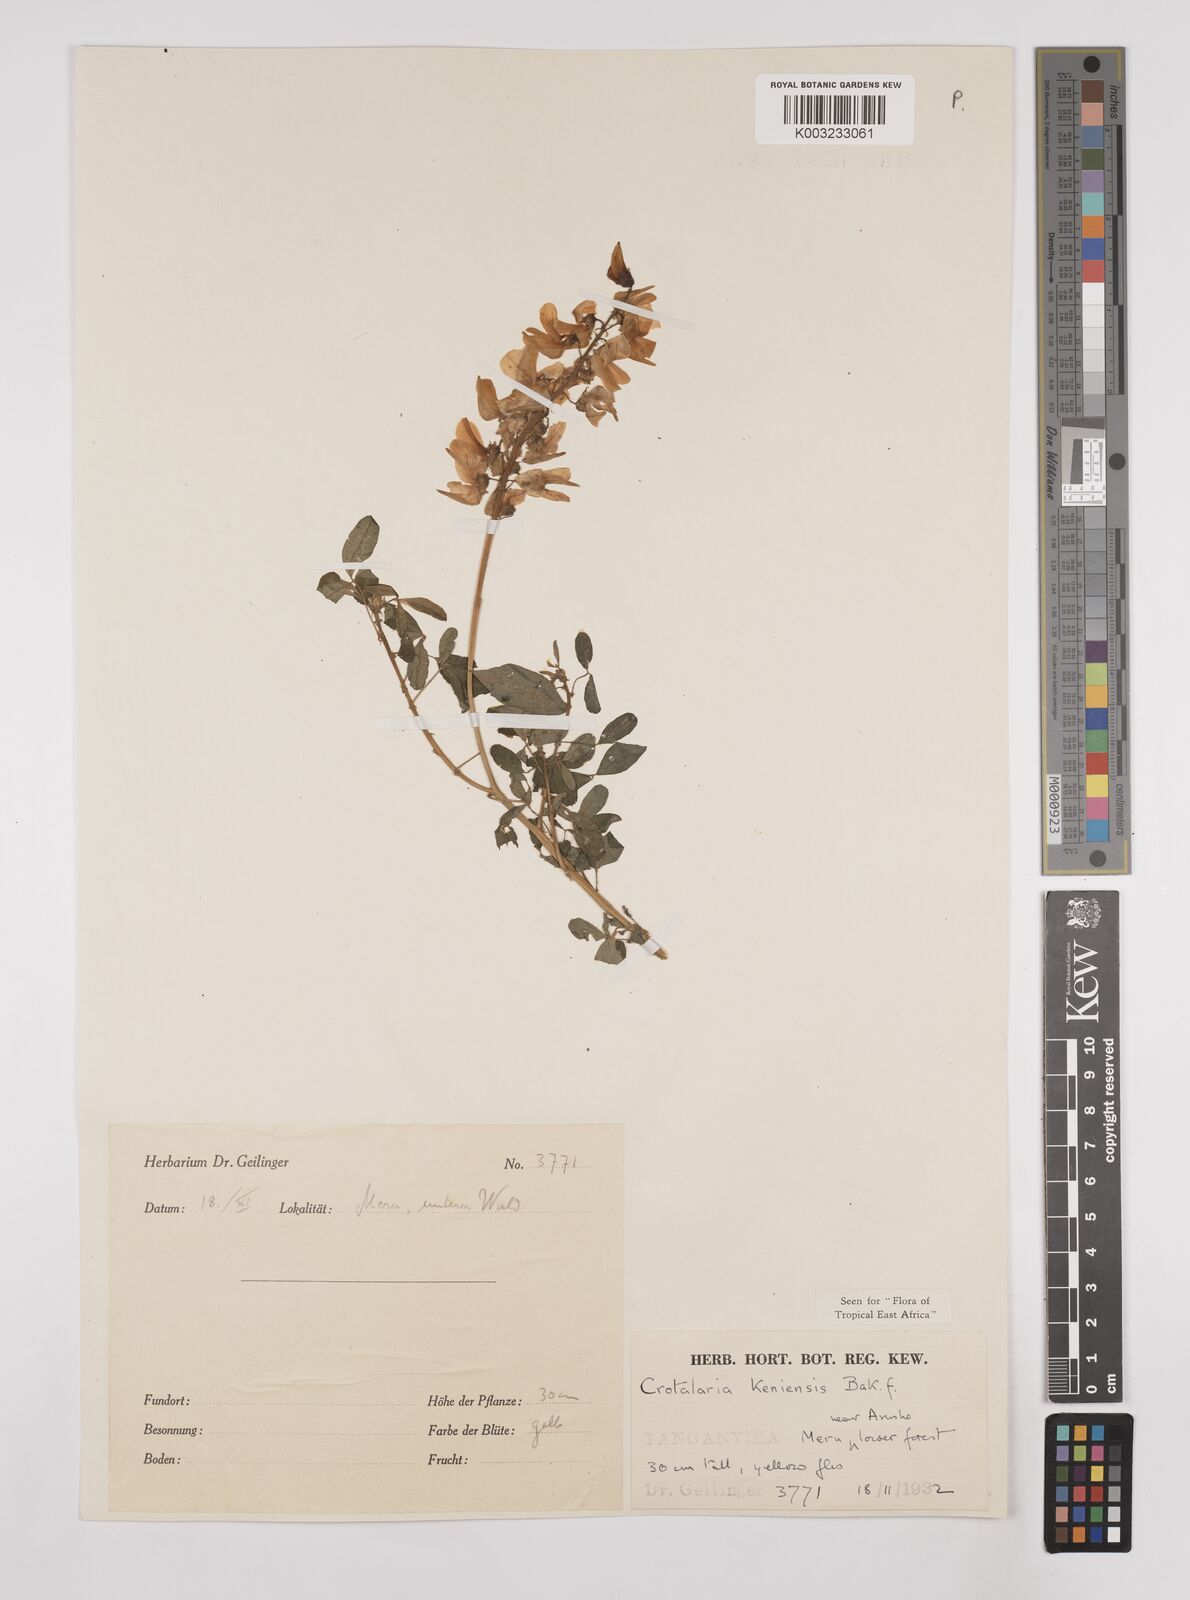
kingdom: Plantae
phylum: Tracheophyta
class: Magnoliopsida
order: Fabales
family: Fabaceae
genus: Crotalaria
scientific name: Crotalaria keniensis
